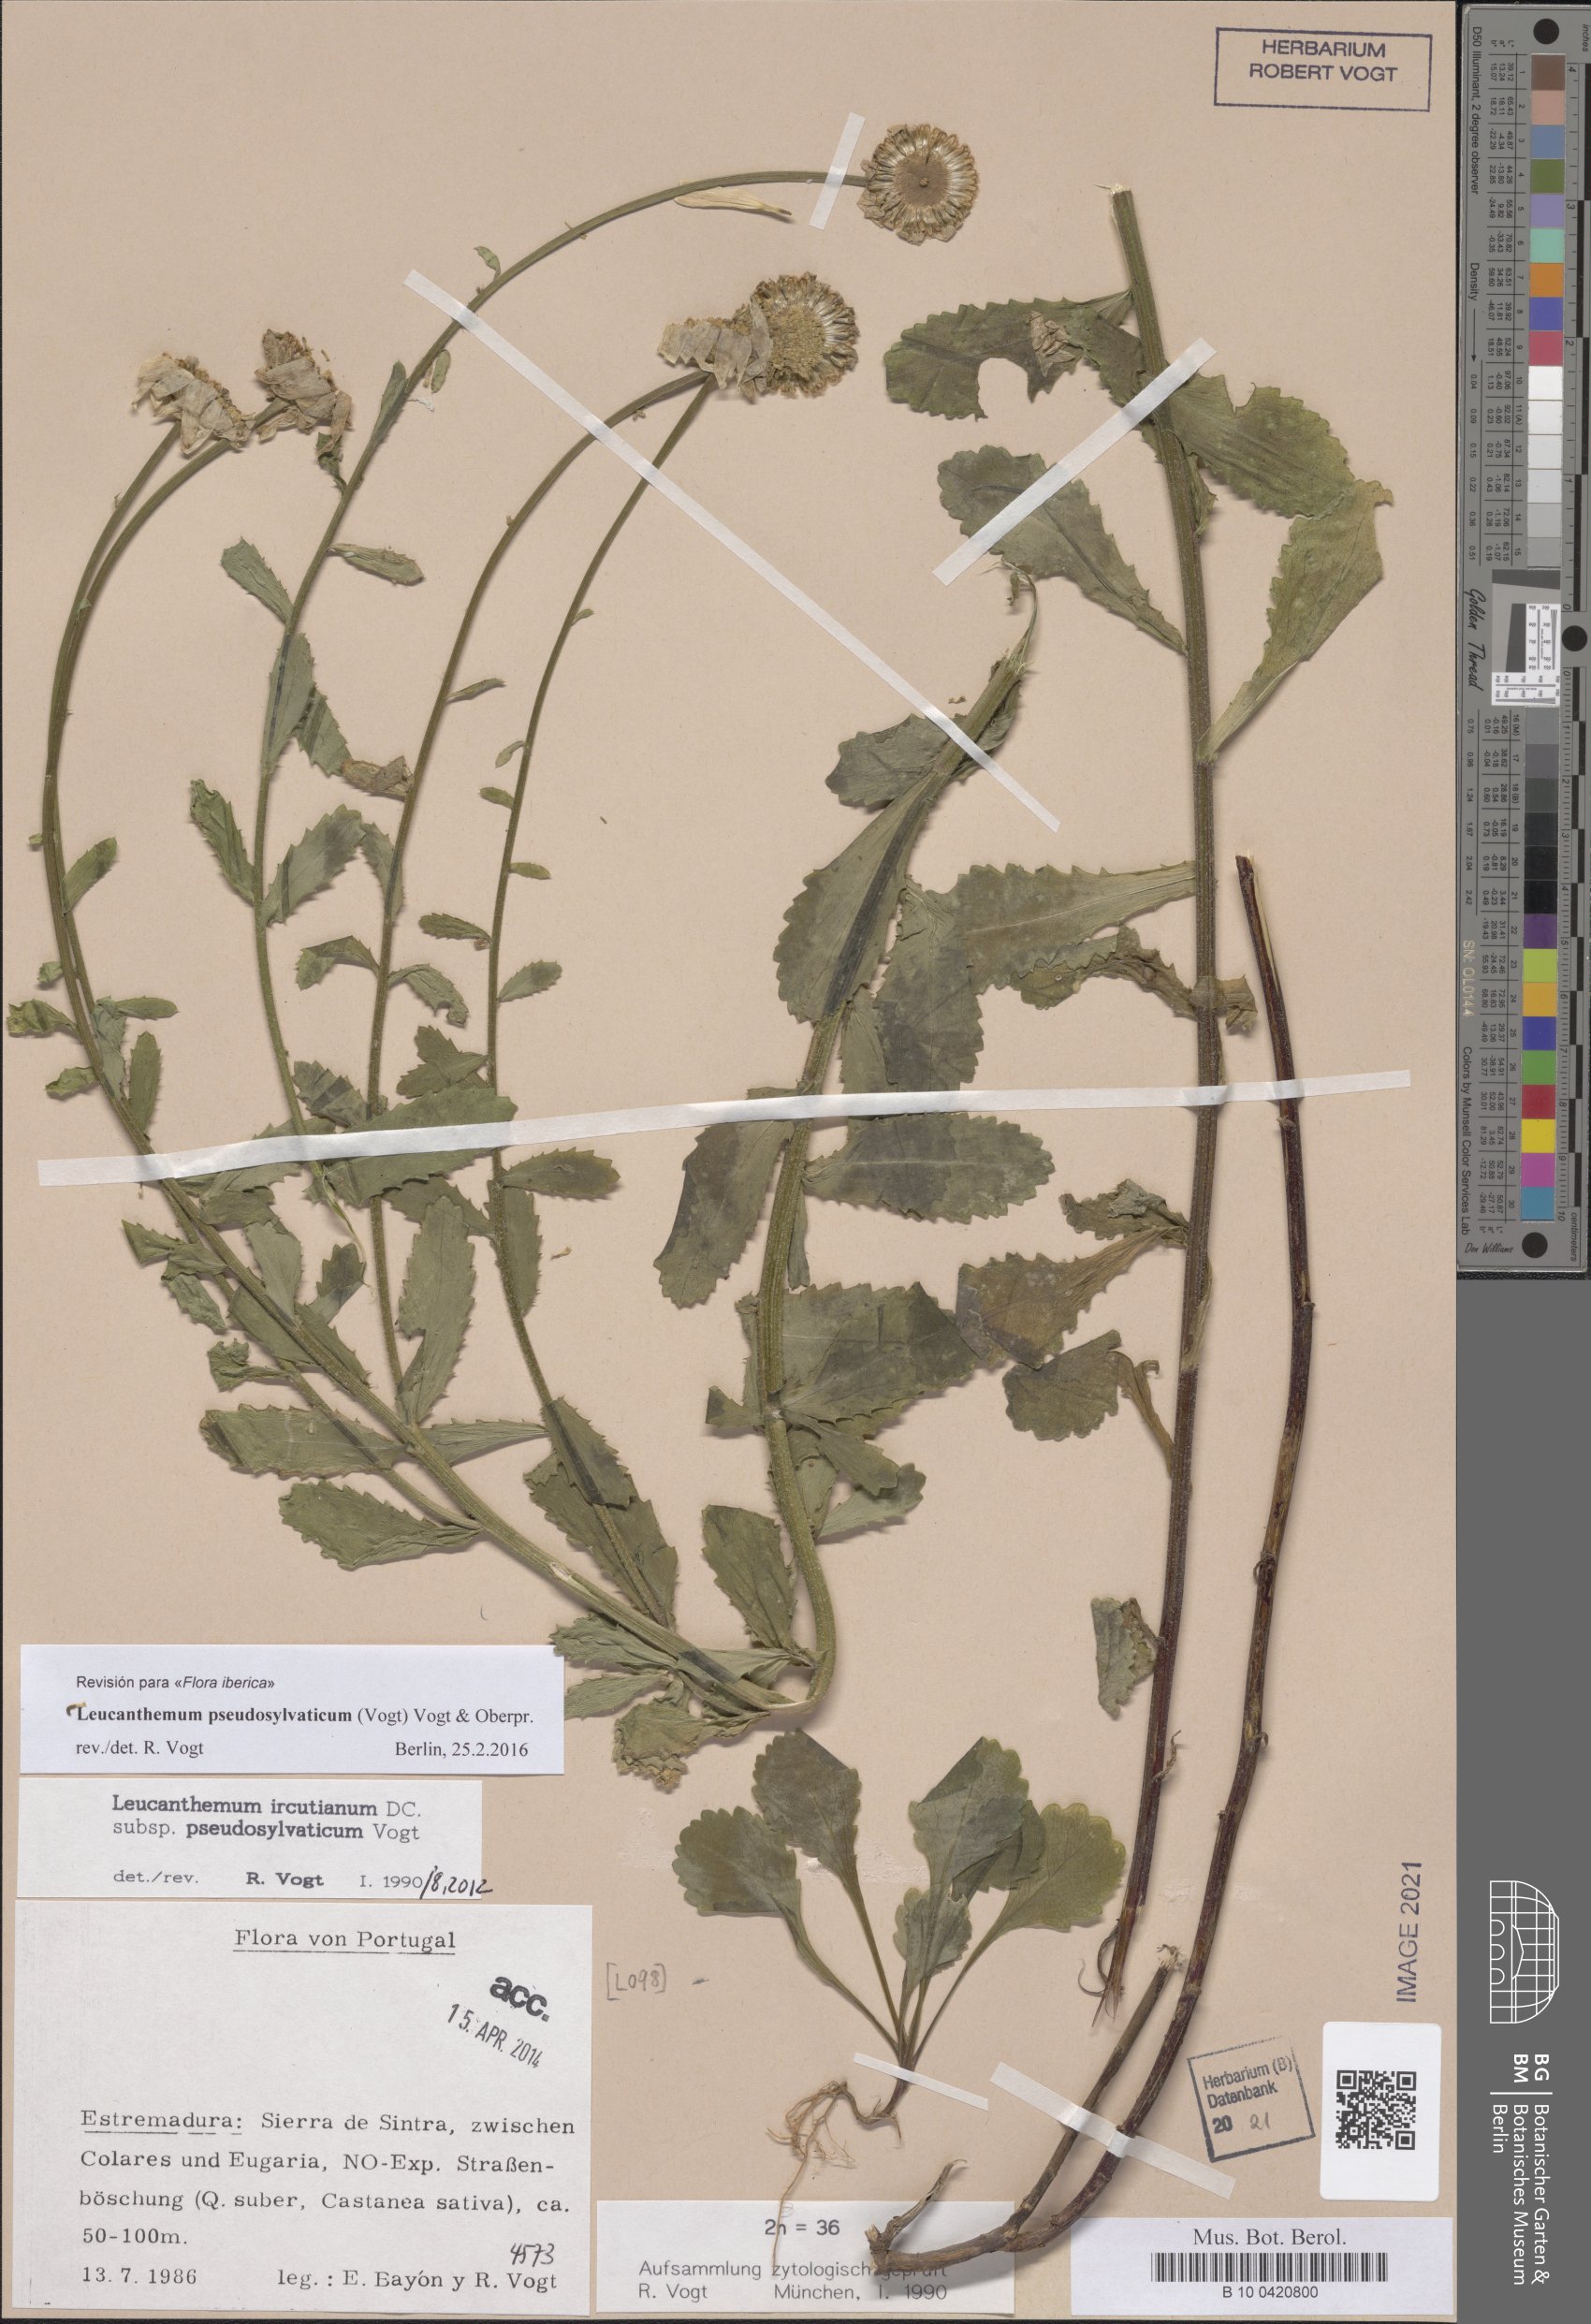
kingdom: Plantae
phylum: Tracheophyta
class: Magnoliopsida
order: Asterales
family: Asteraceae
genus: Leucanthemum
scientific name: Leucanthemum pseudosylvaticum
